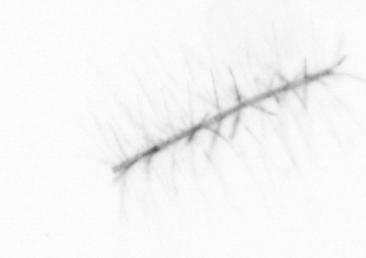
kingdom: Chromista
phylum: Ochrophyta
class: Bacillariophyceae
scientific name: Bacillariophyceae
